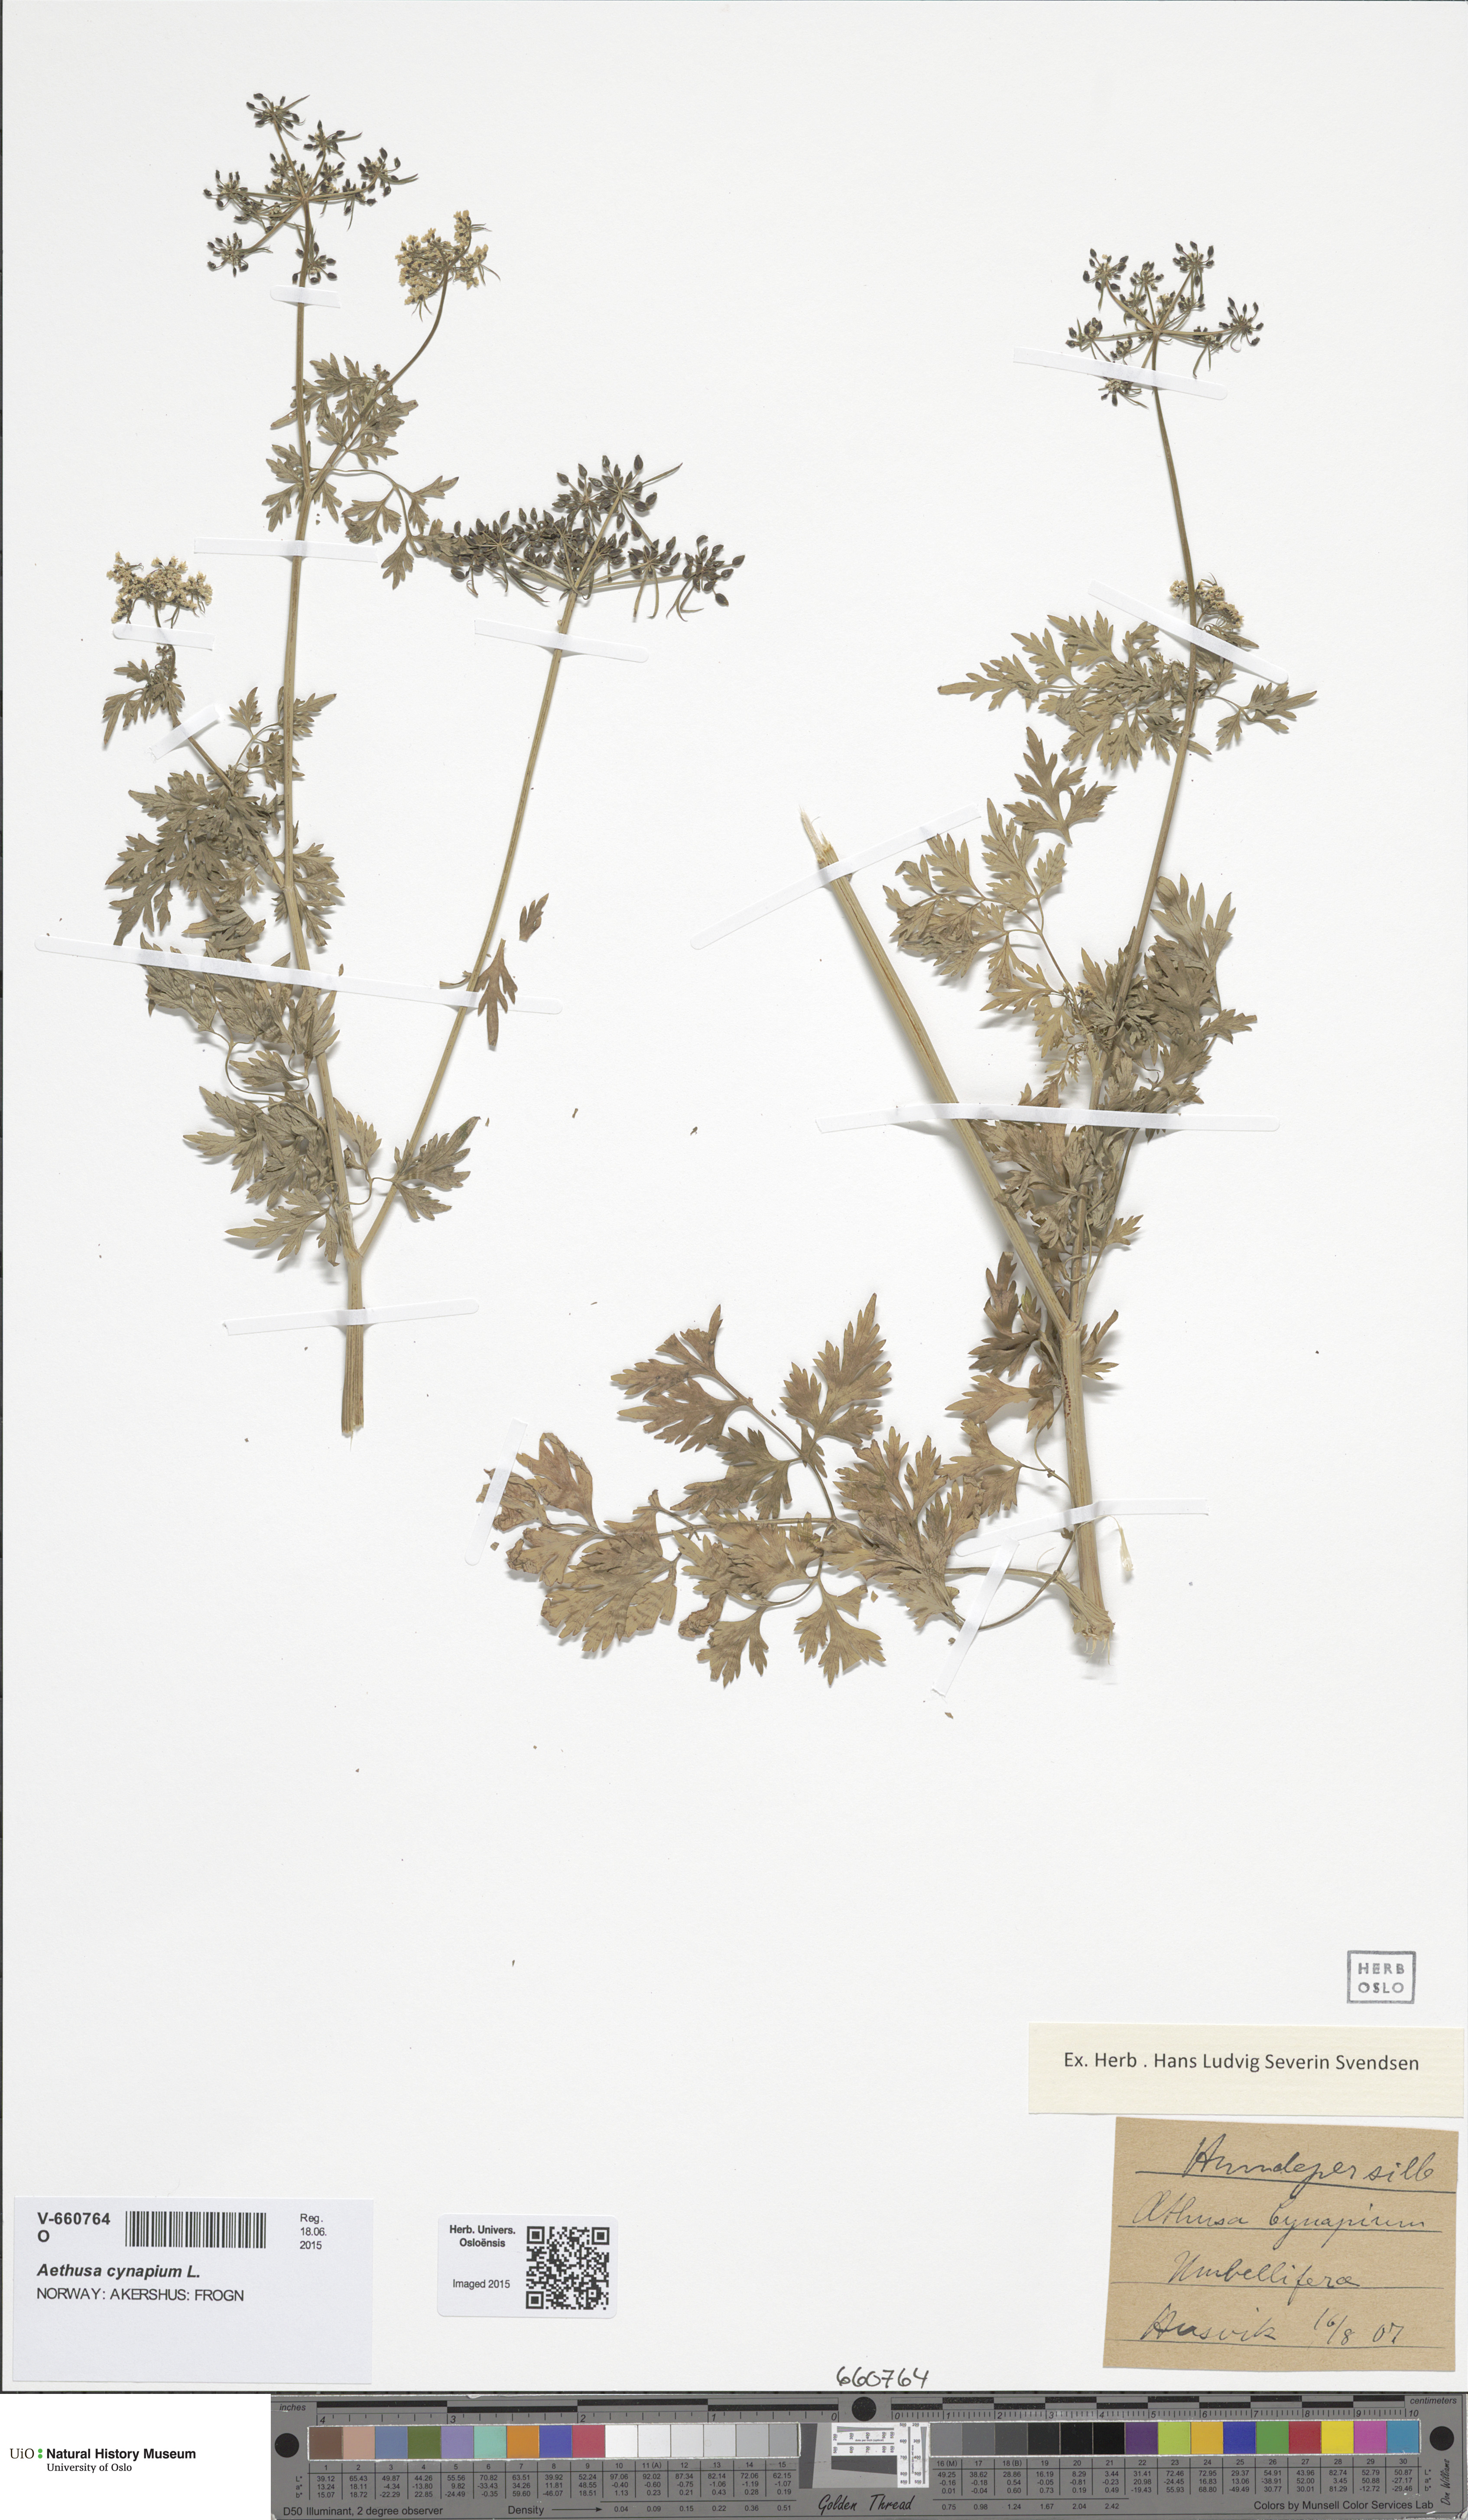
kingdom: Plantae
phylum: Tracheophyta
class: Magnoliopsida
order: Apiales
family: Apiaceae
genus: Aethusa
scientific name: Aethusa cynapium
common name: Fool's parsley
